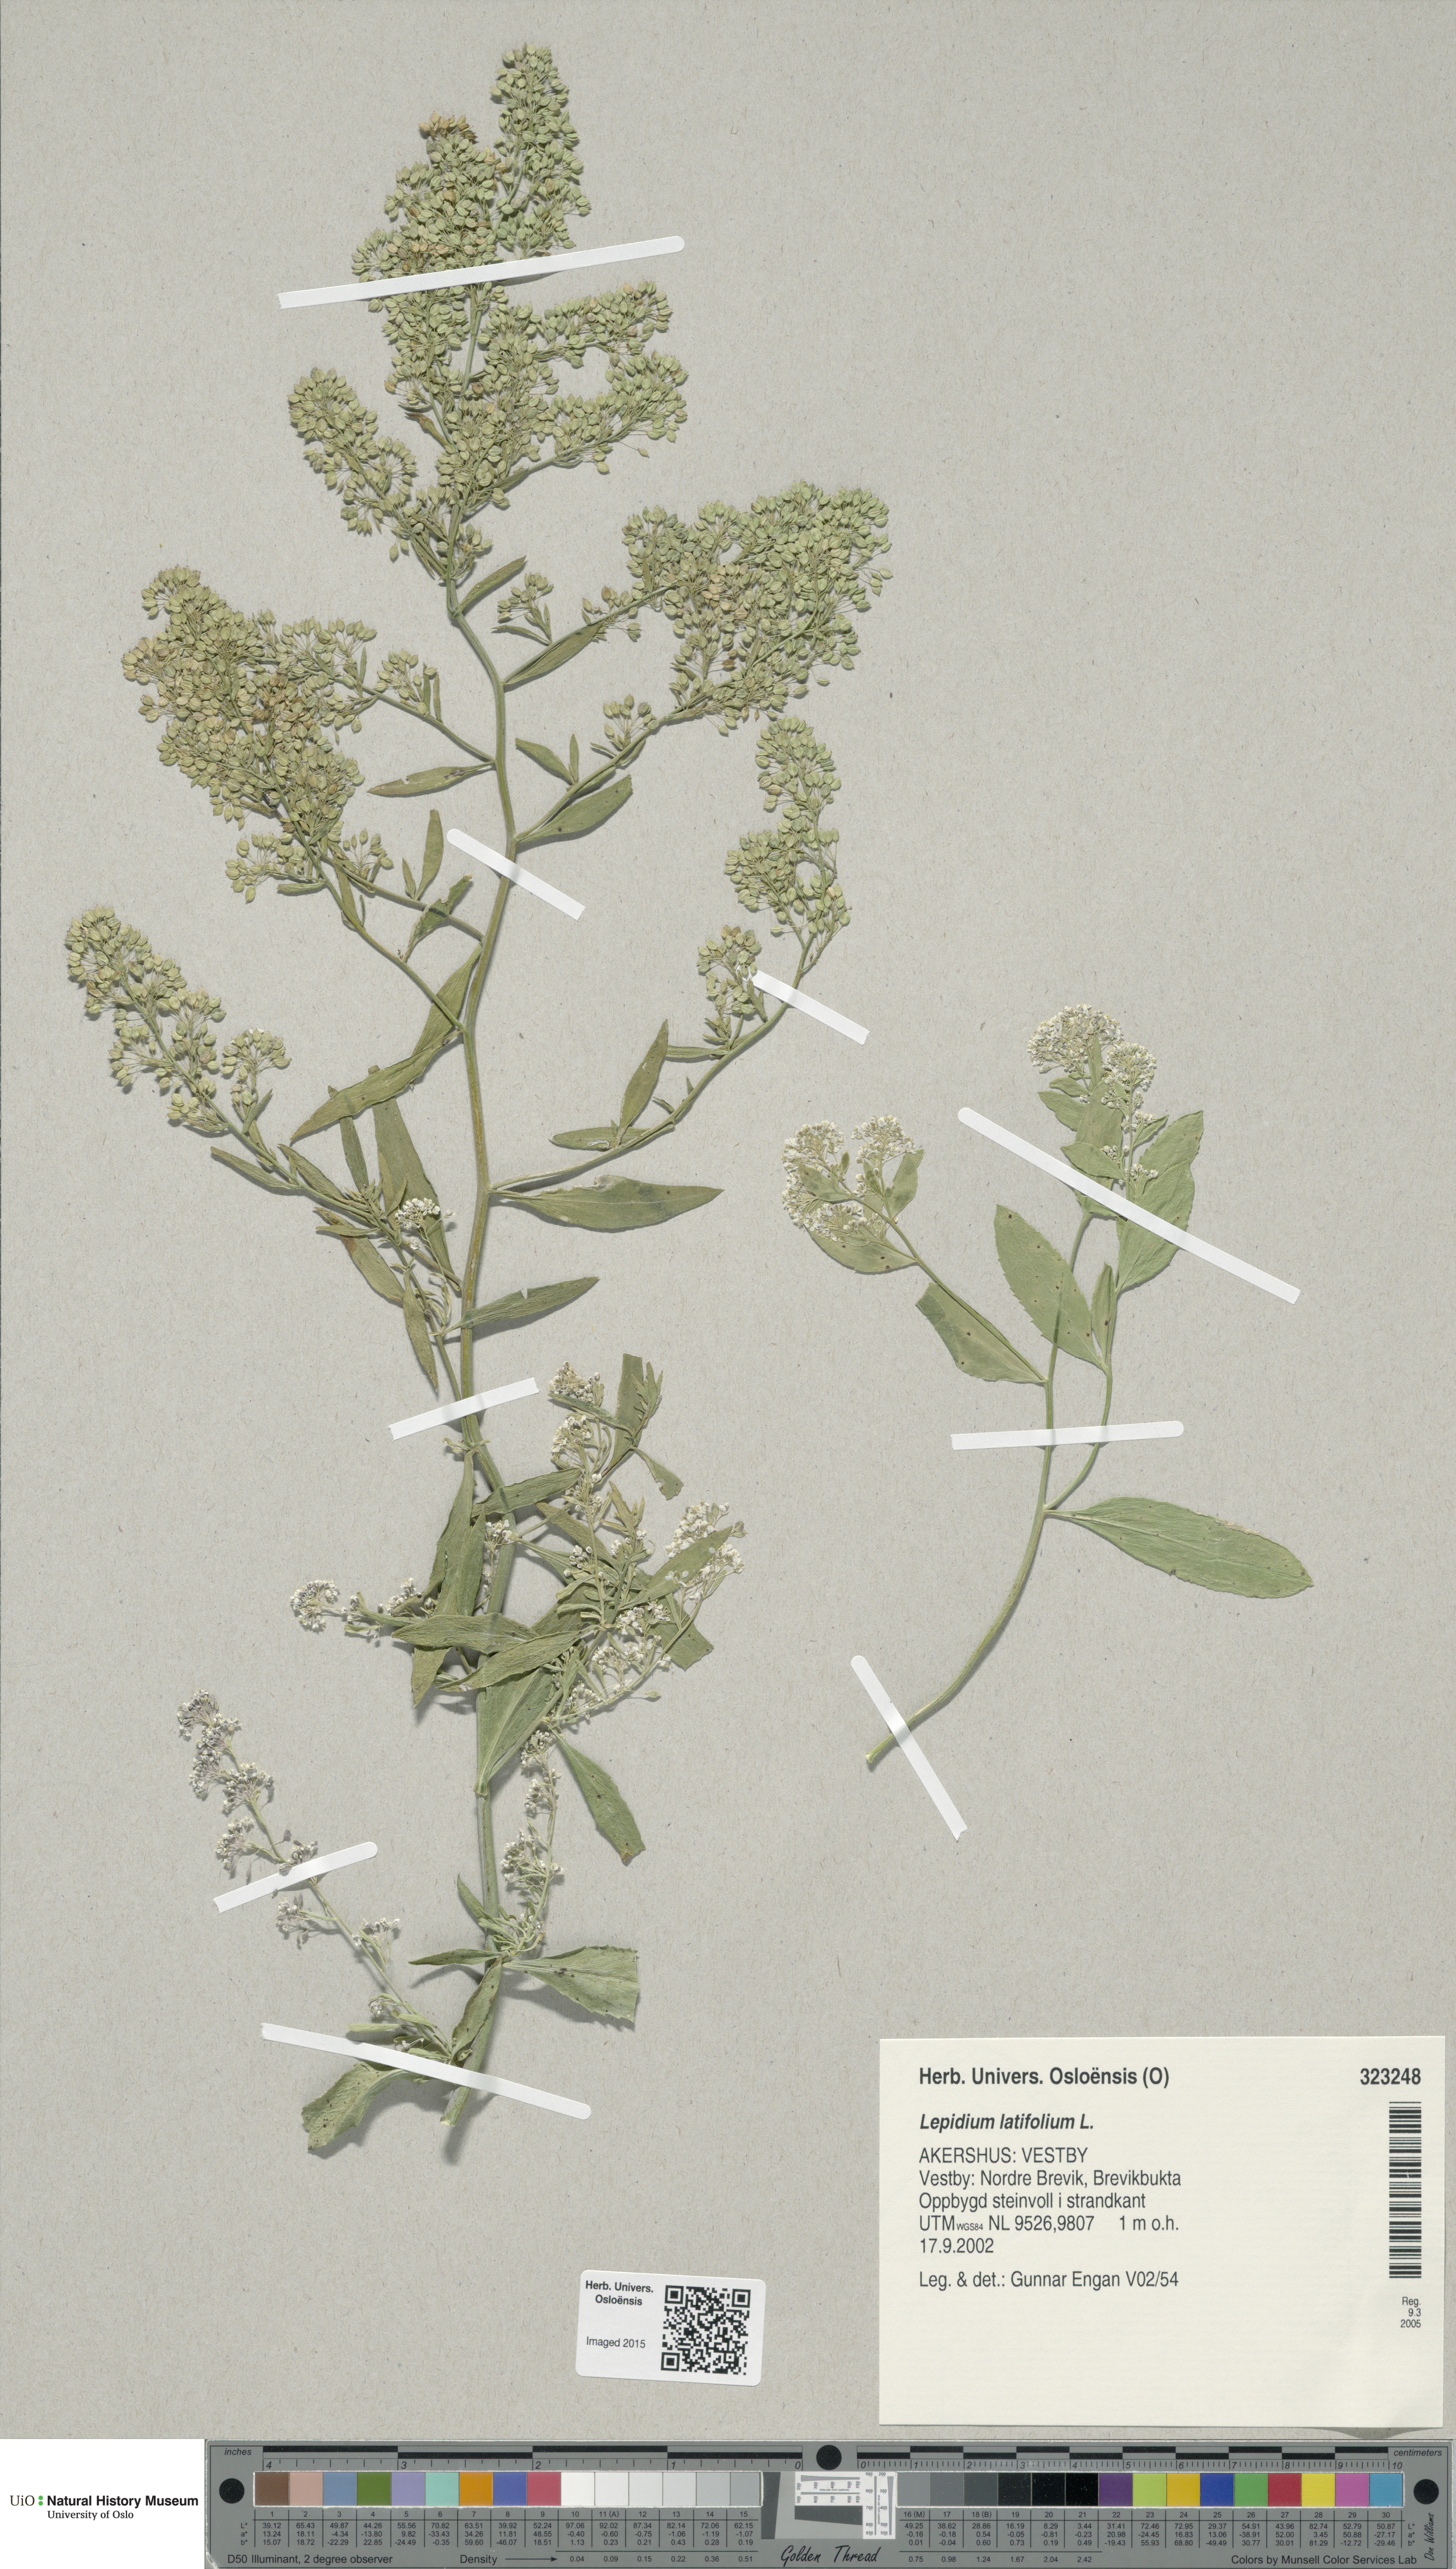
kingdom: Plantae
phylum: Tracheophyta
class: Magnoliopsida
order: Brassicales
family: Brassicaceae
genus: Lepidium
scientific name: Lepidium latifolium
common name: Dittander
